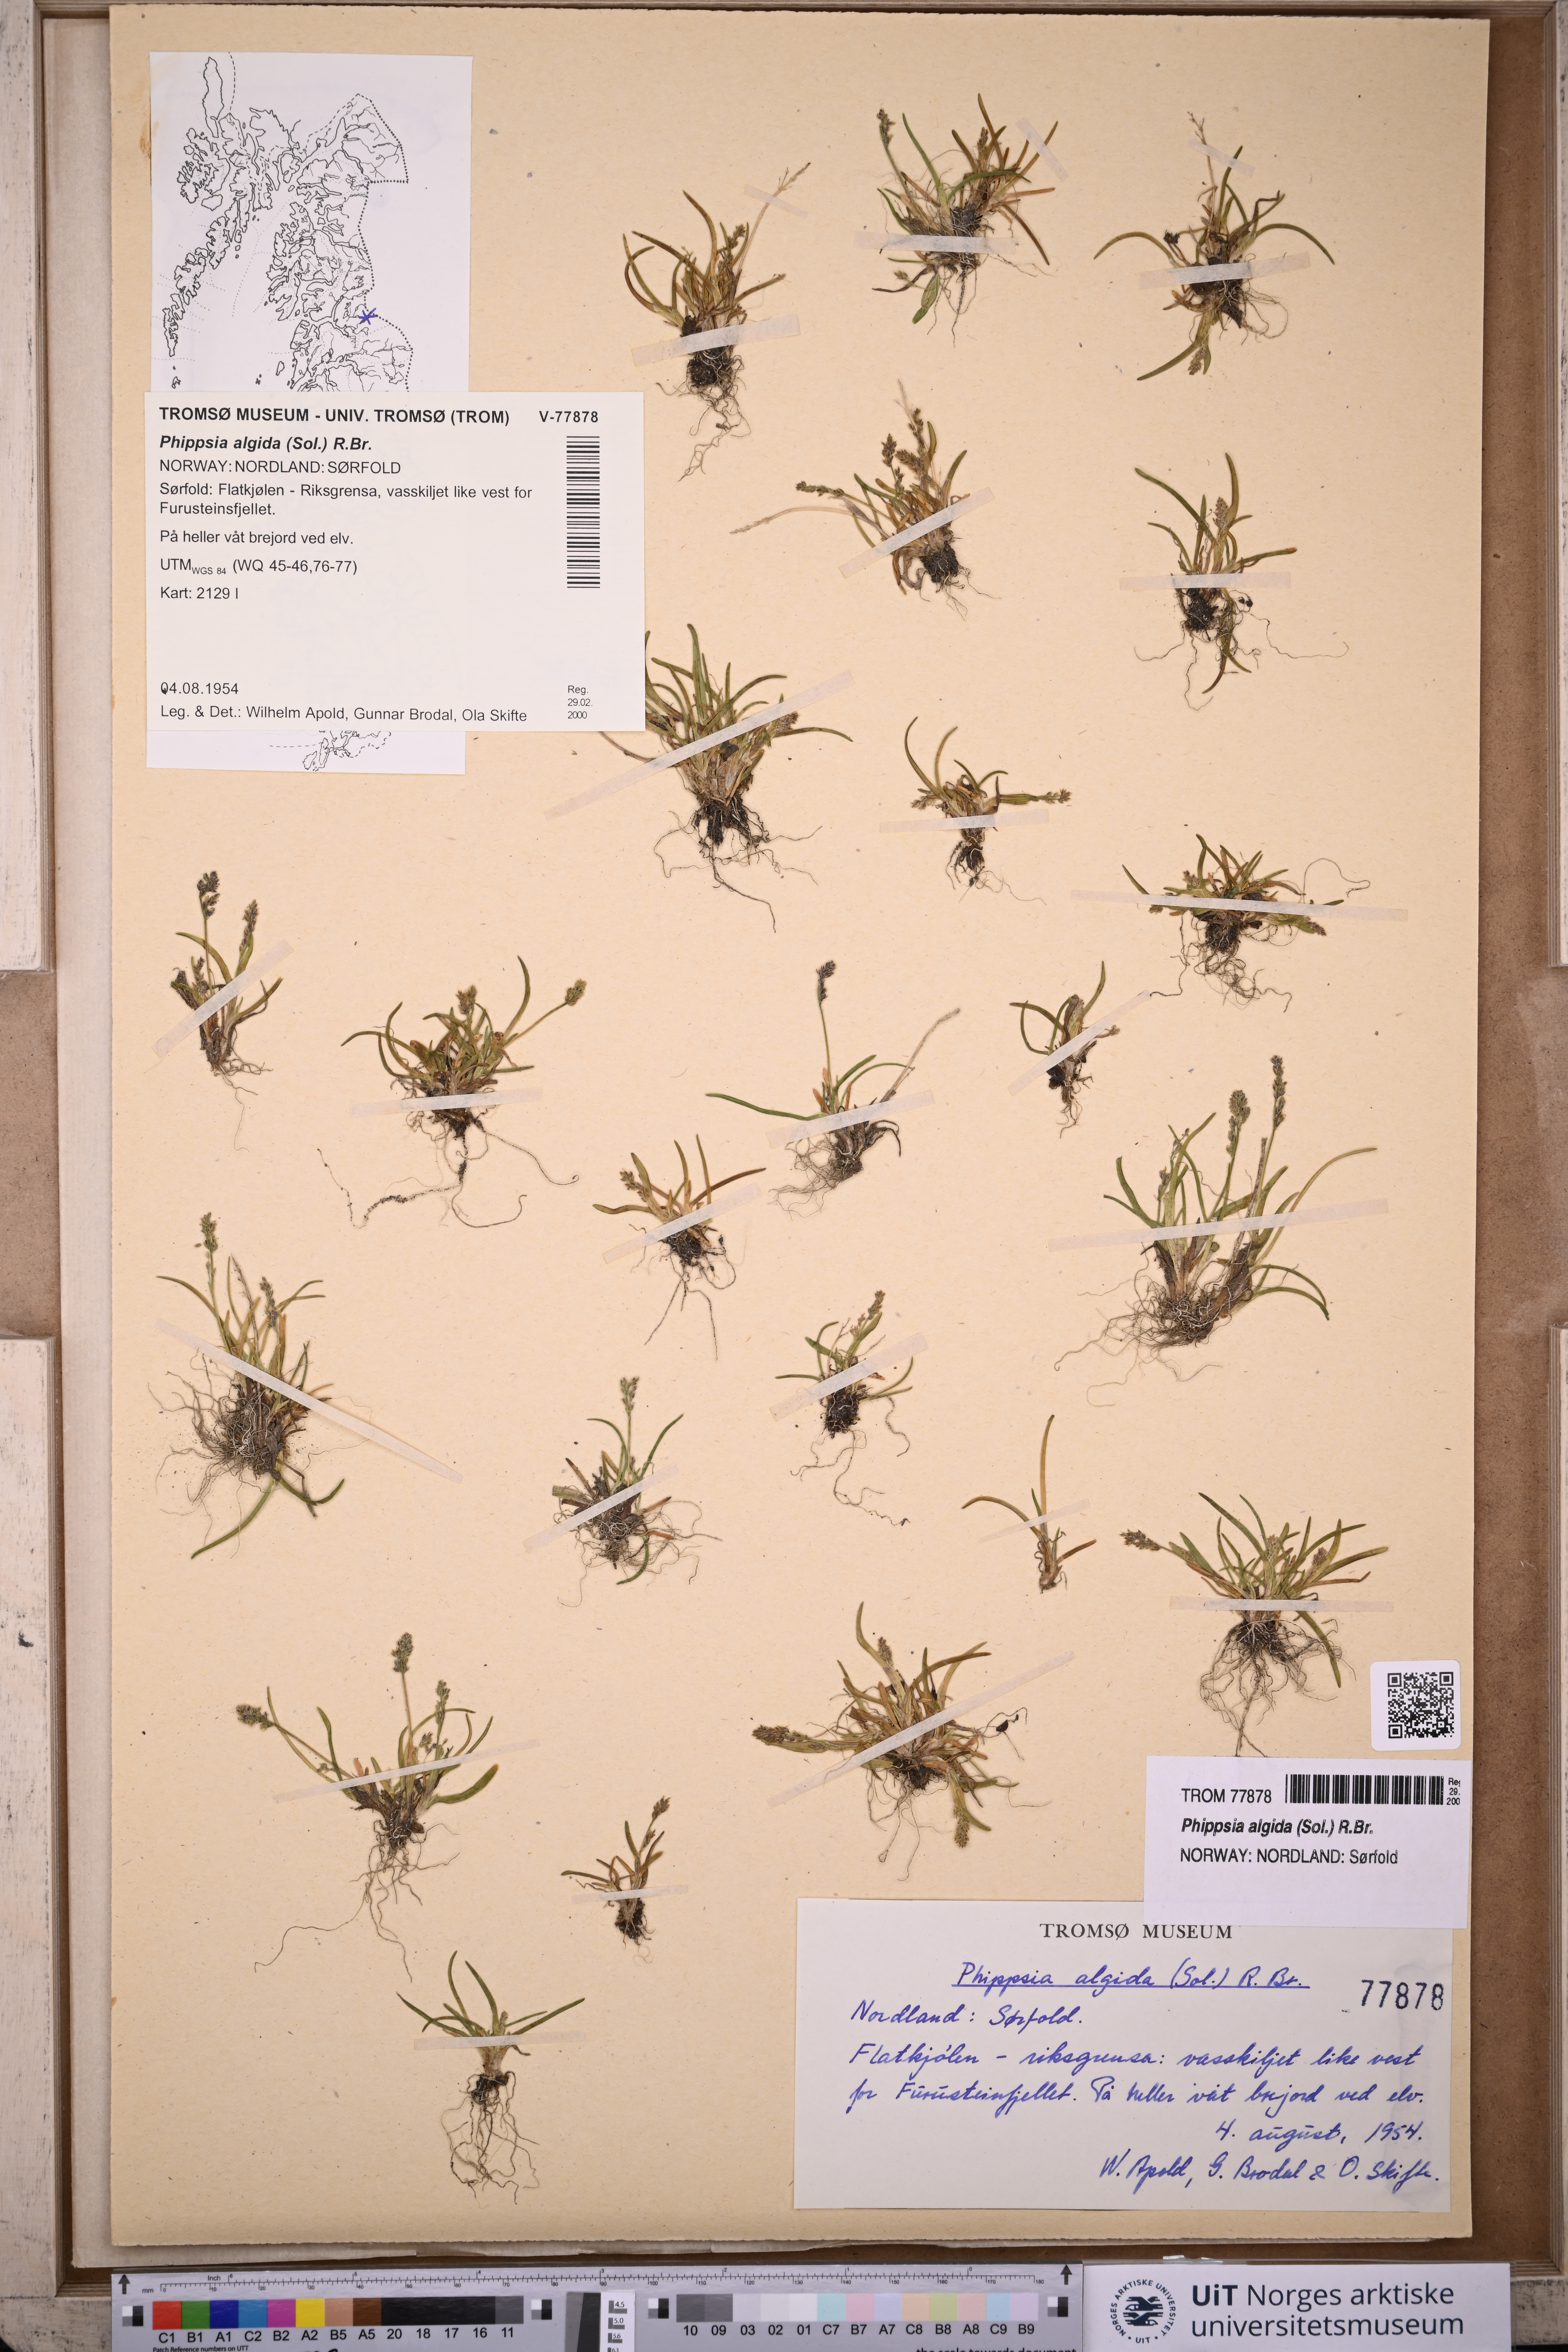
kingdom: Plantae
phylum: Tracheophyta
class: Liliopsida
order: Poales
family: Poaceae
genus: Phippsia
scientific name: Phippsia algida
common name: Ice grass
